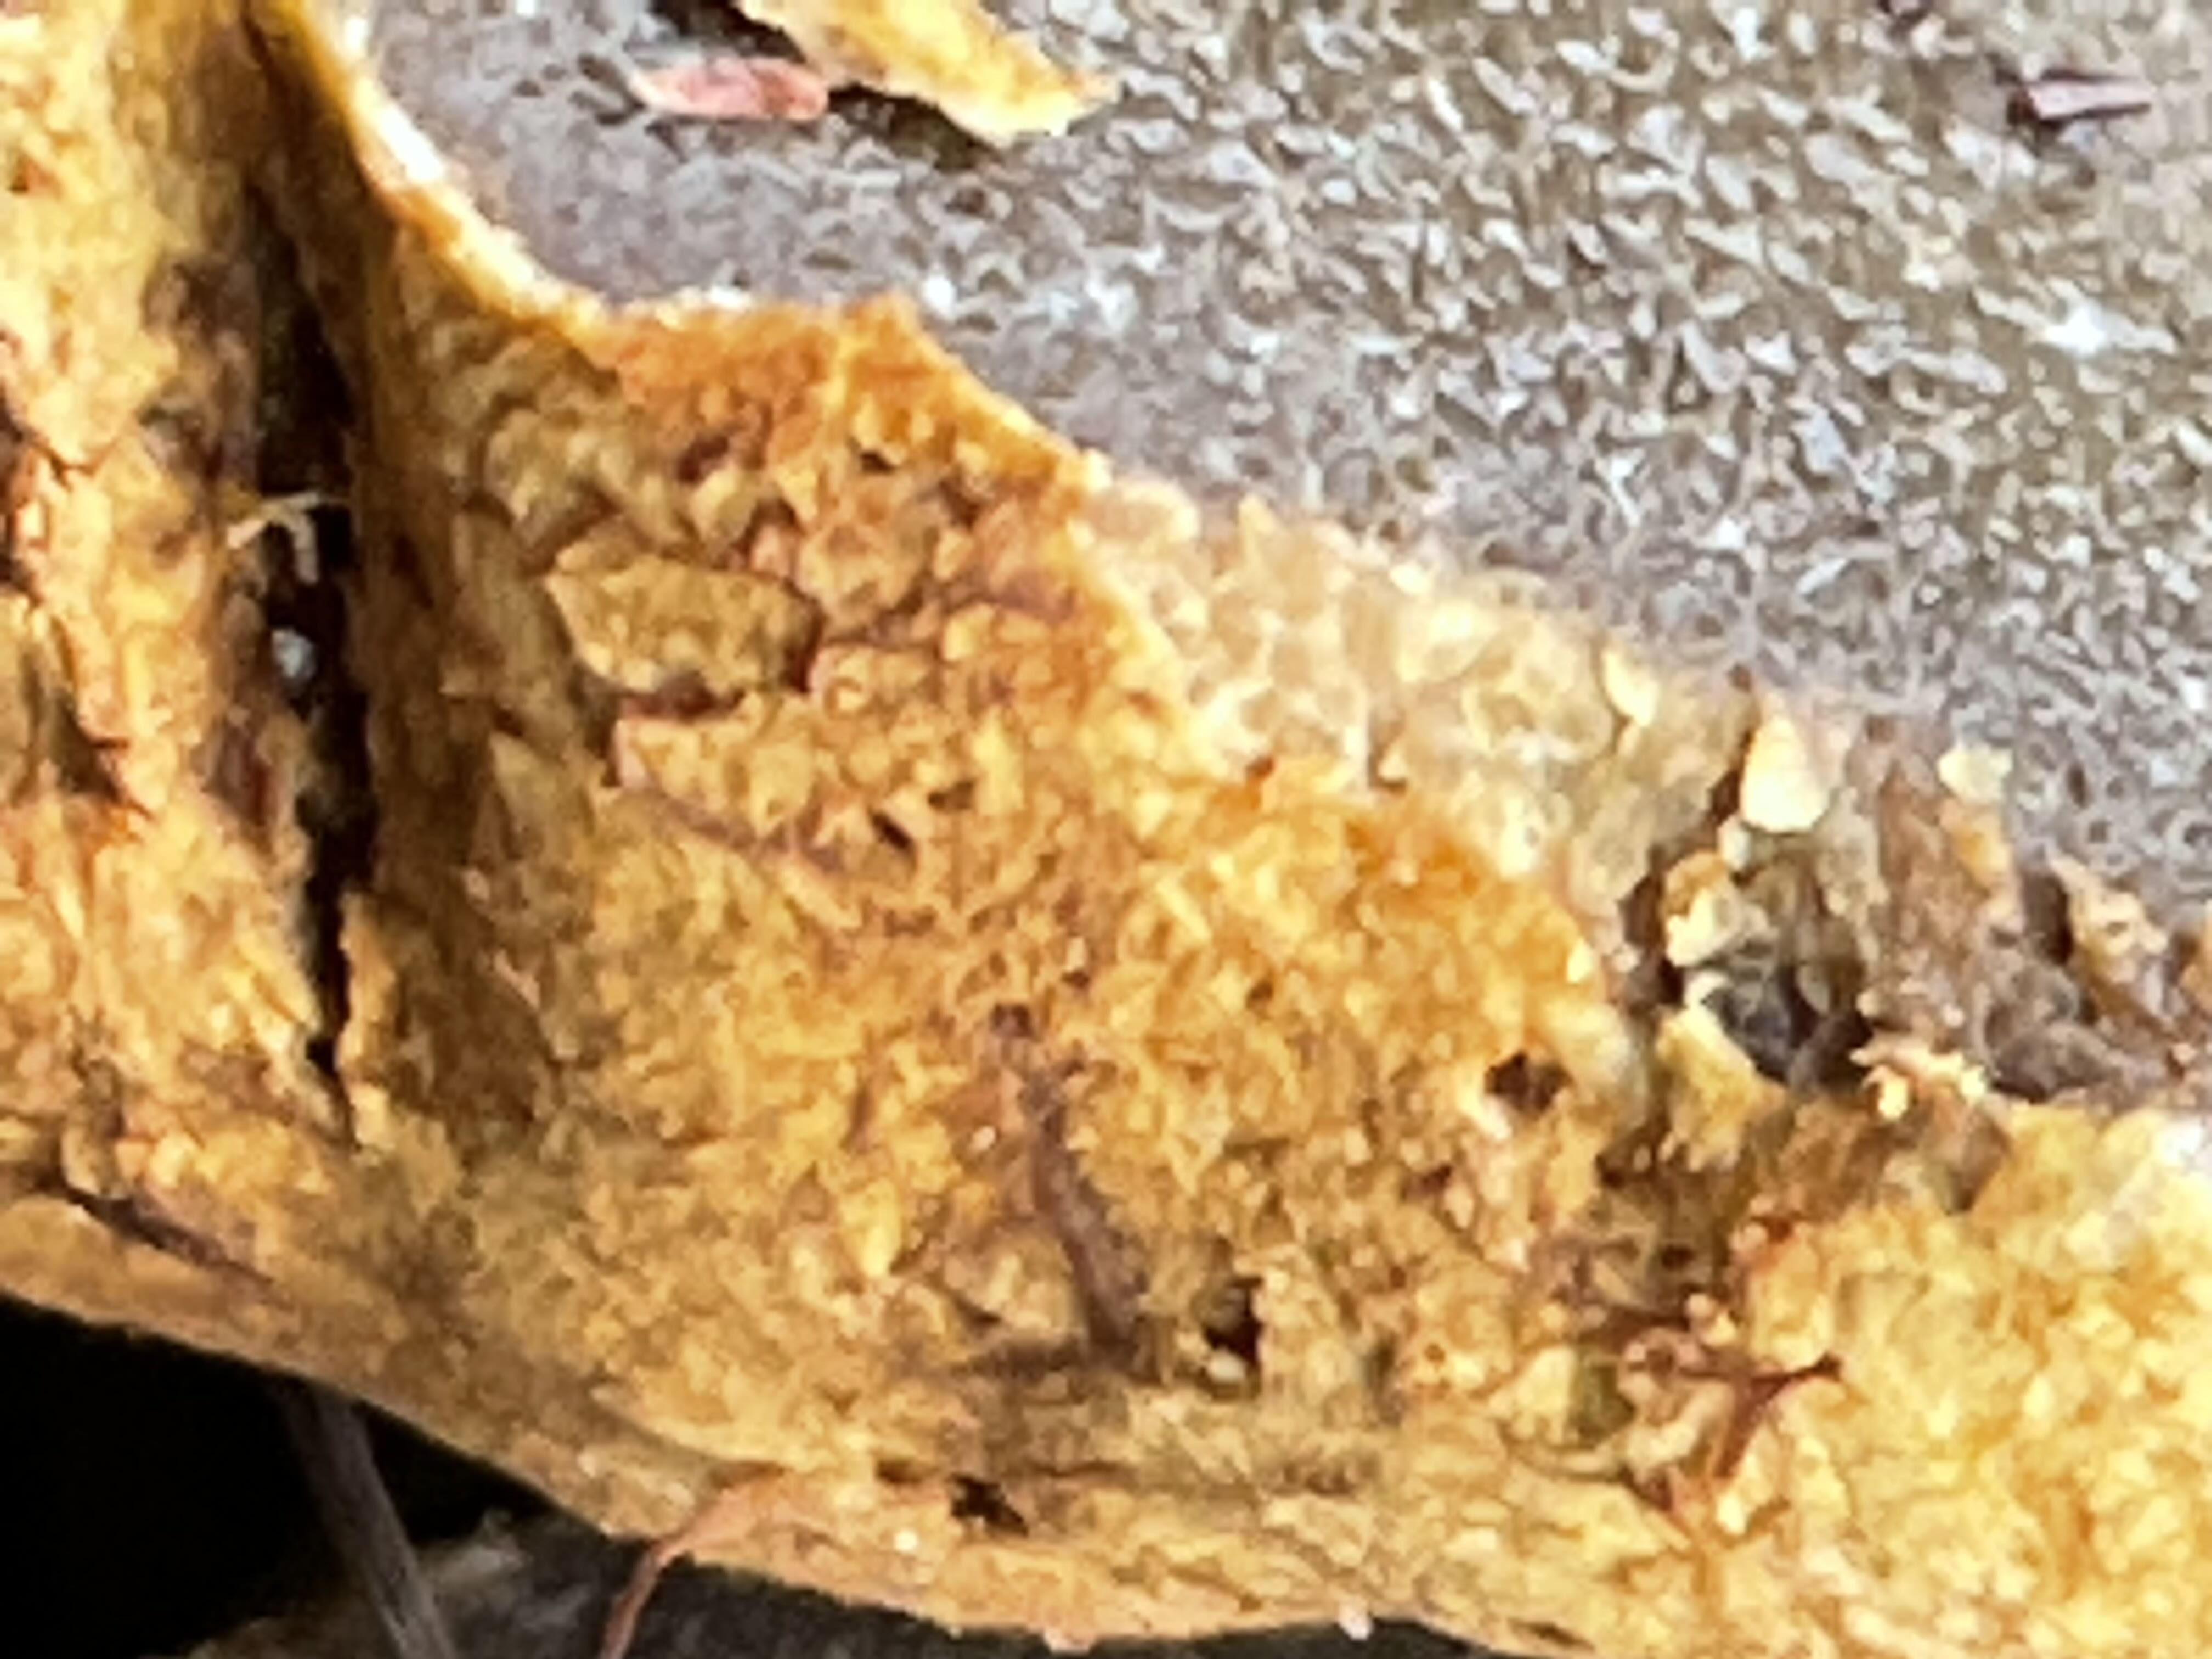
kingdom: Fungi
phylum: Basidiomycota
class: Agaricomycetes
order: Boletales
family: Rhizopogonaceae
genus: Rhizopogon
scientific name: Rhizopogon obtextus
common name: gul skægtrøffel
